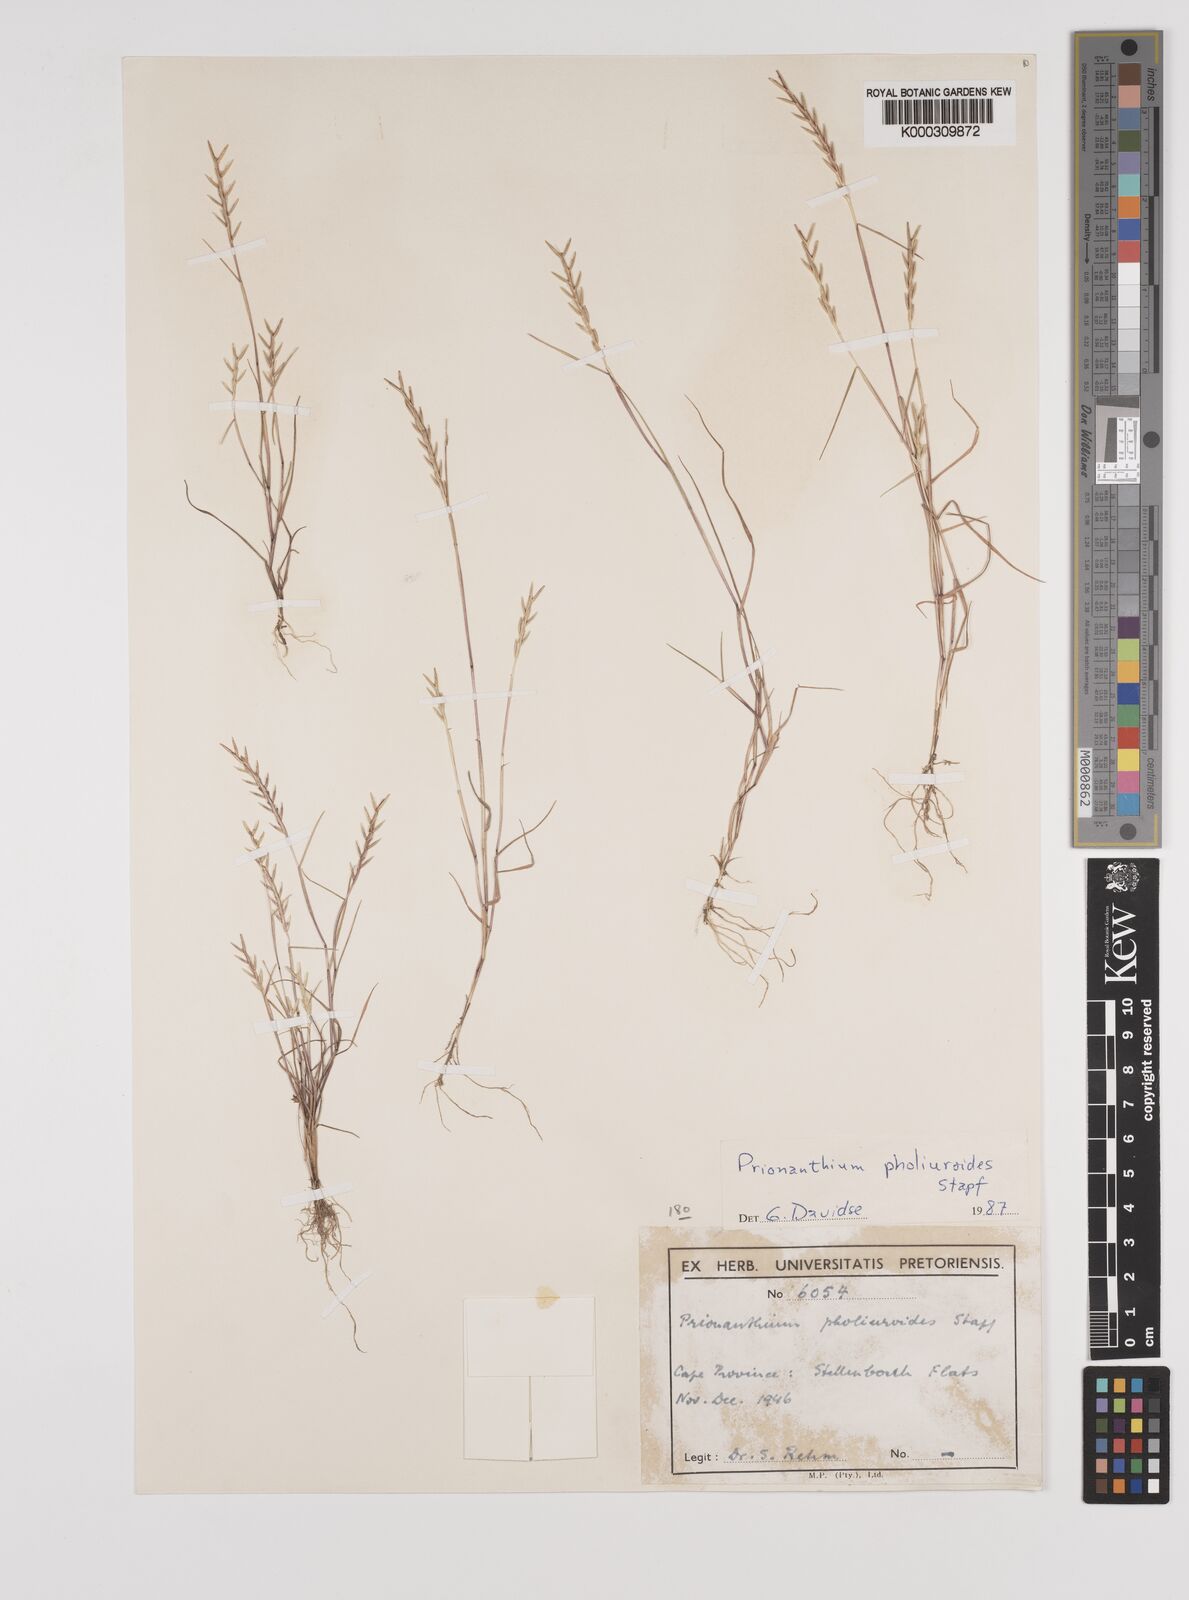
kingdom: Plantae
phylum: Tracheophyta
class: Liliopsida
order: Poales
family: Poaceae
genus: Pentameris
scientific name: Pentameris pholiuroides
